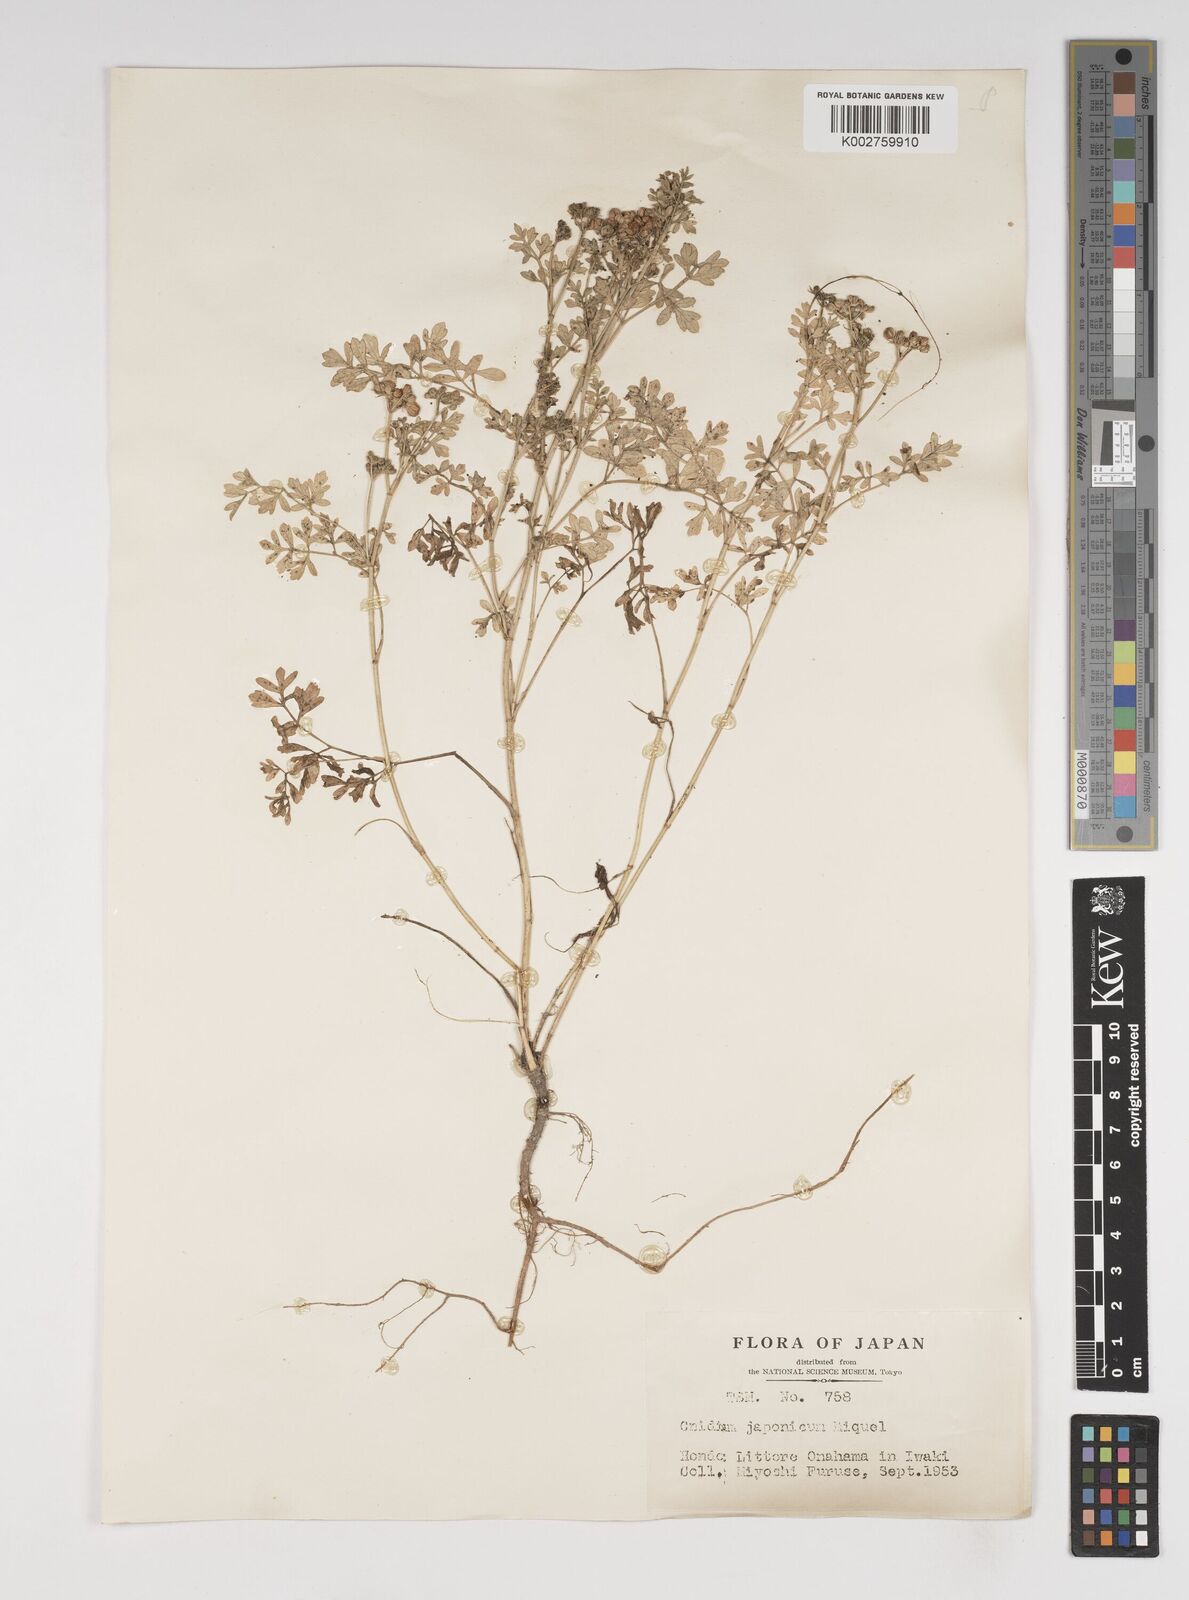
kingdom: Plantae
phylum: Tracheophyta
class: Magnoliopsida
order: Apiales
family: Apiaceae
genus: Cnidium
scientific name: Cnidium japonicum
